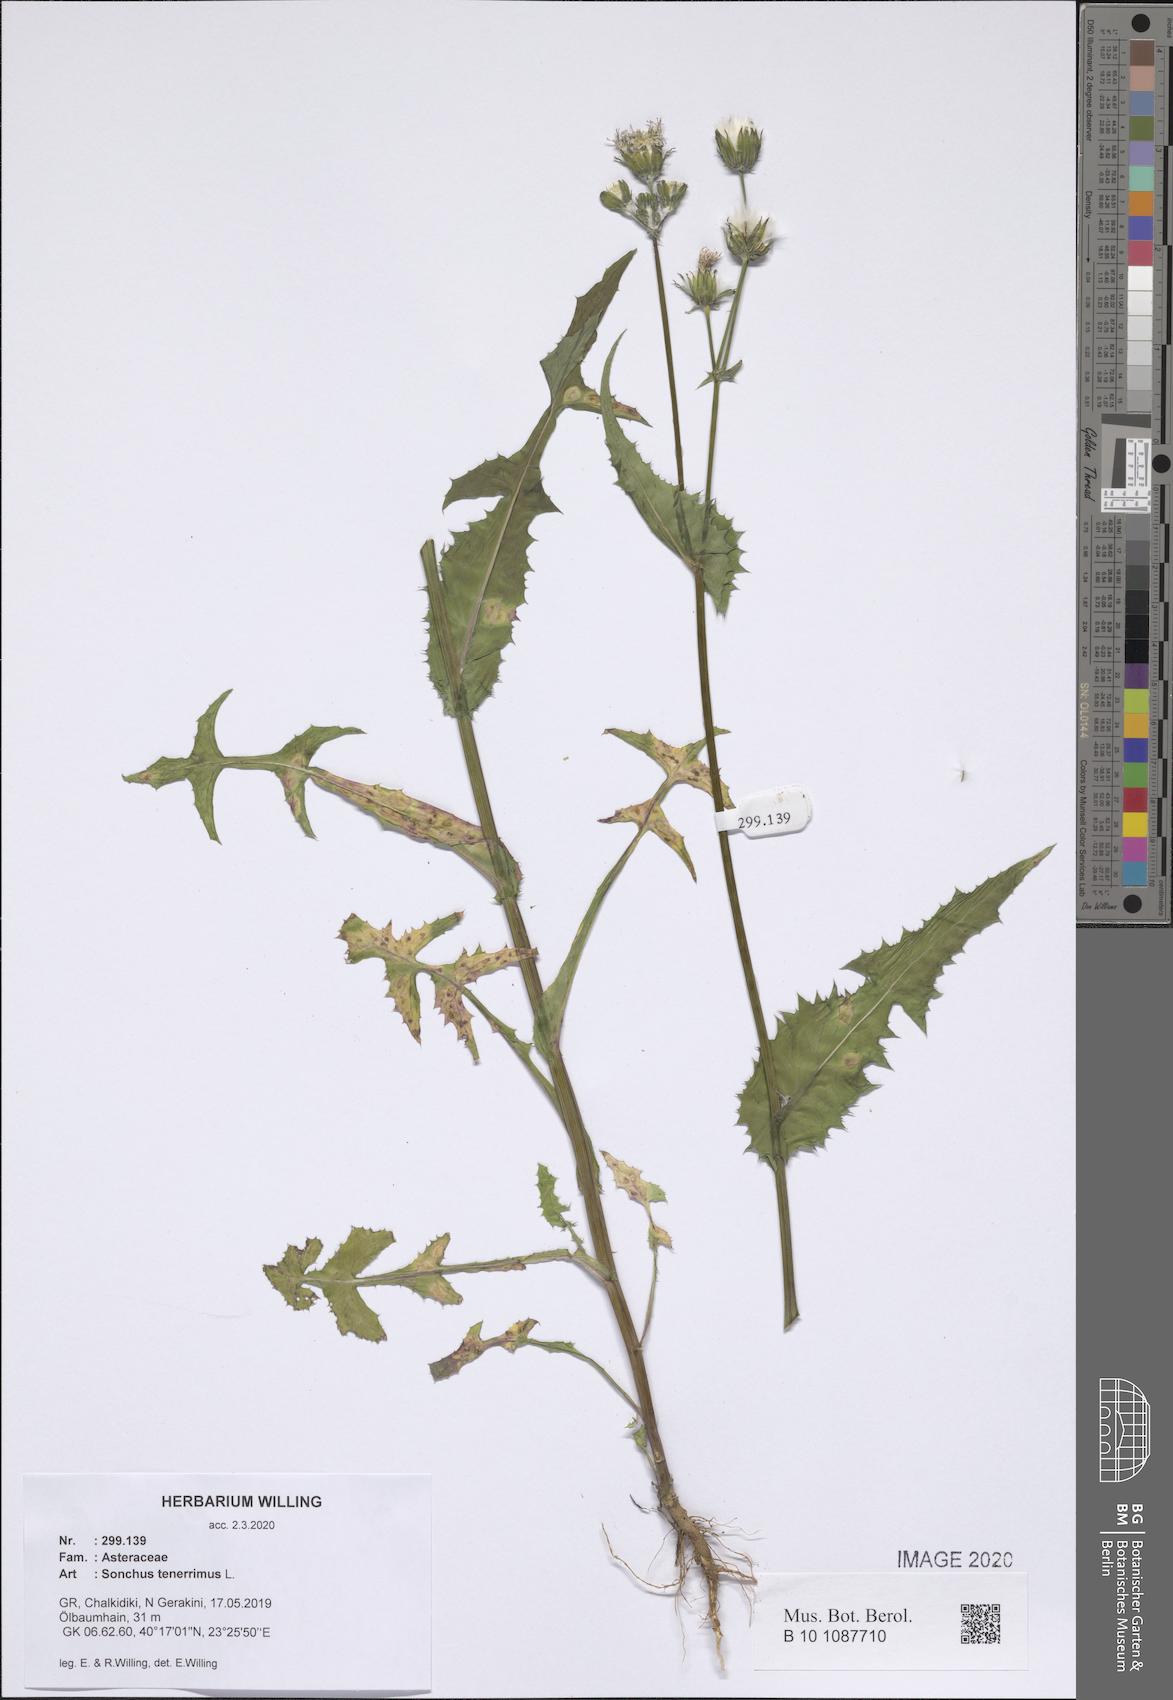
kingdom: Plantae
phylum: Tracheophyta
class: Magnoliopsida
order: Asterales
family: Asteraceae
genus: Sonchus
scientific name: Sonchus tenerrimus
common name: Clammy sowthistle
